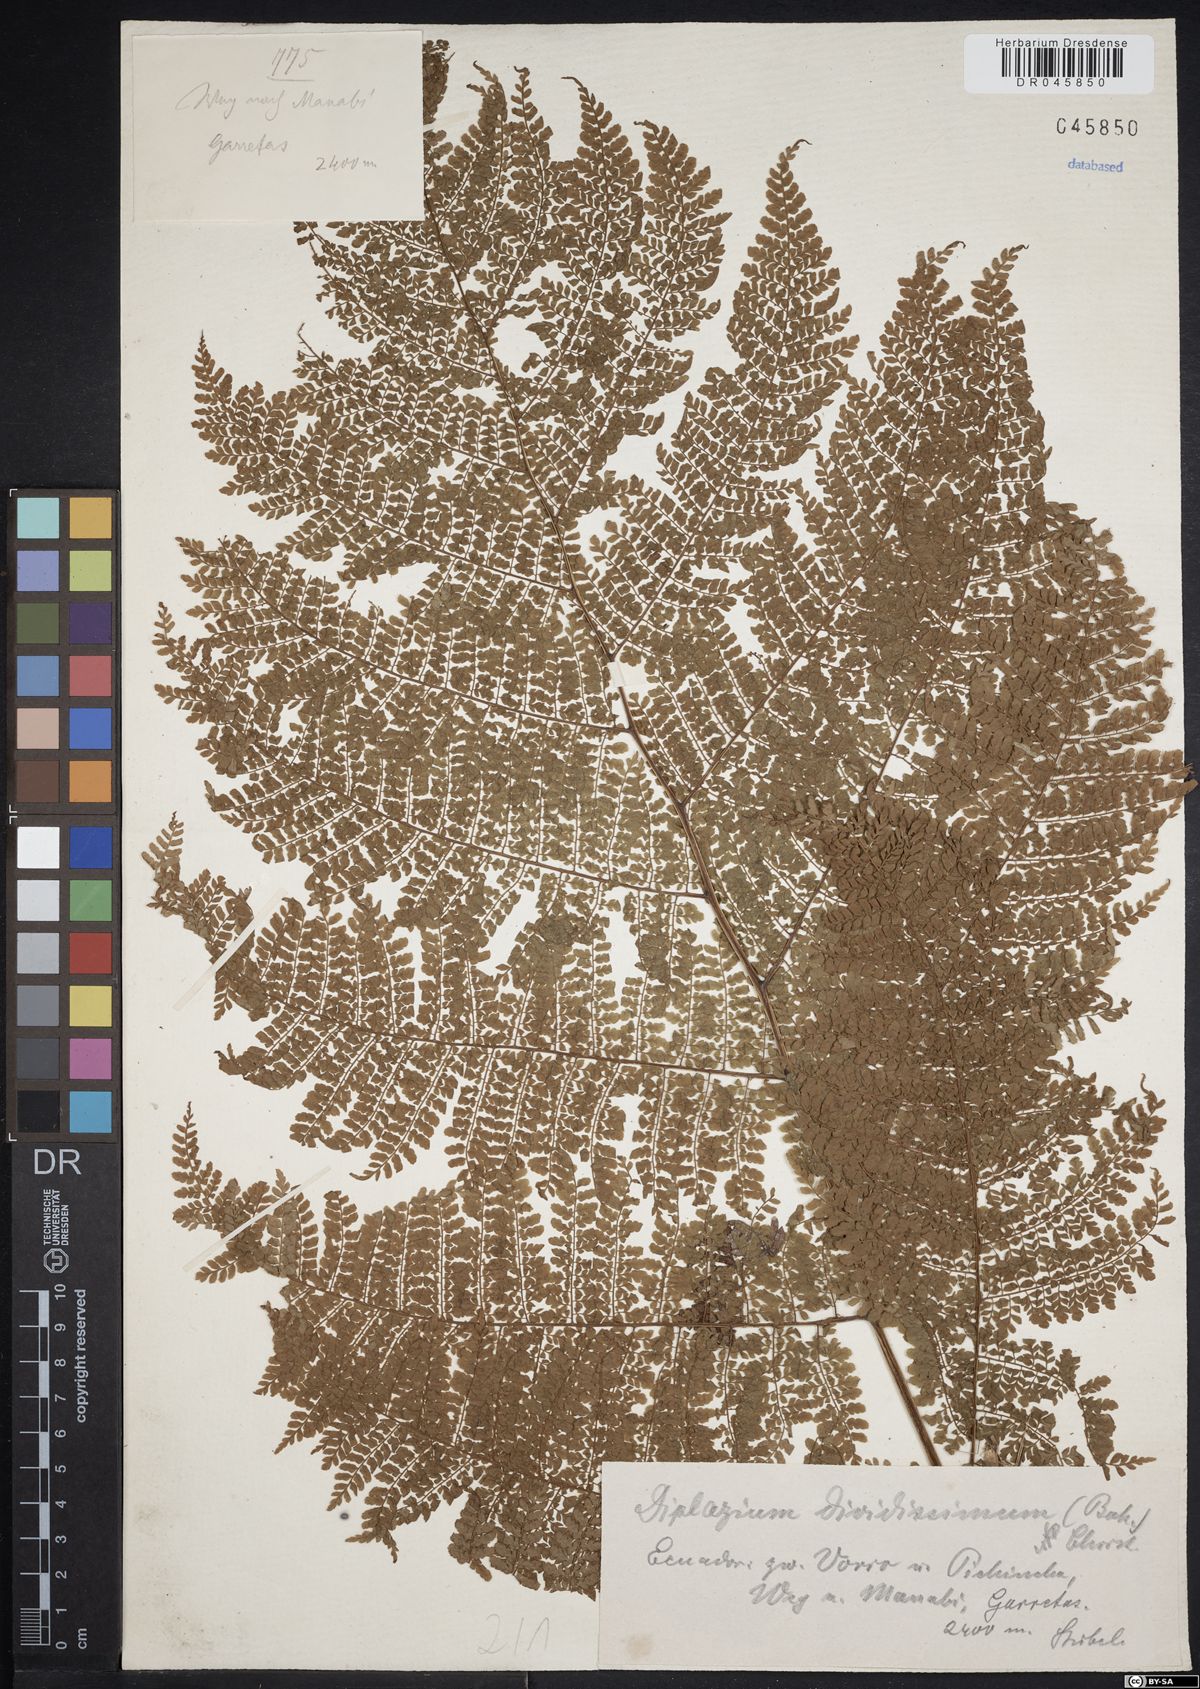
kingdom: Plantae
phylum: Tracheophyta
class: Polypodiopsida
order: Polypodiales
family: Athyriaceae
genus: Diplazium
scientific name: Diplazium divisissimum
